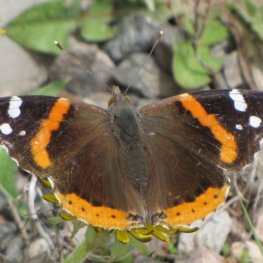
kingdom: Animalia
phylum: Arthropoda
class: Insecta
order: Lepidoptera
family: Nymphalidae
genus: Vanessa
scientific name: Vanessa atalanta
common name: Red Admiral
